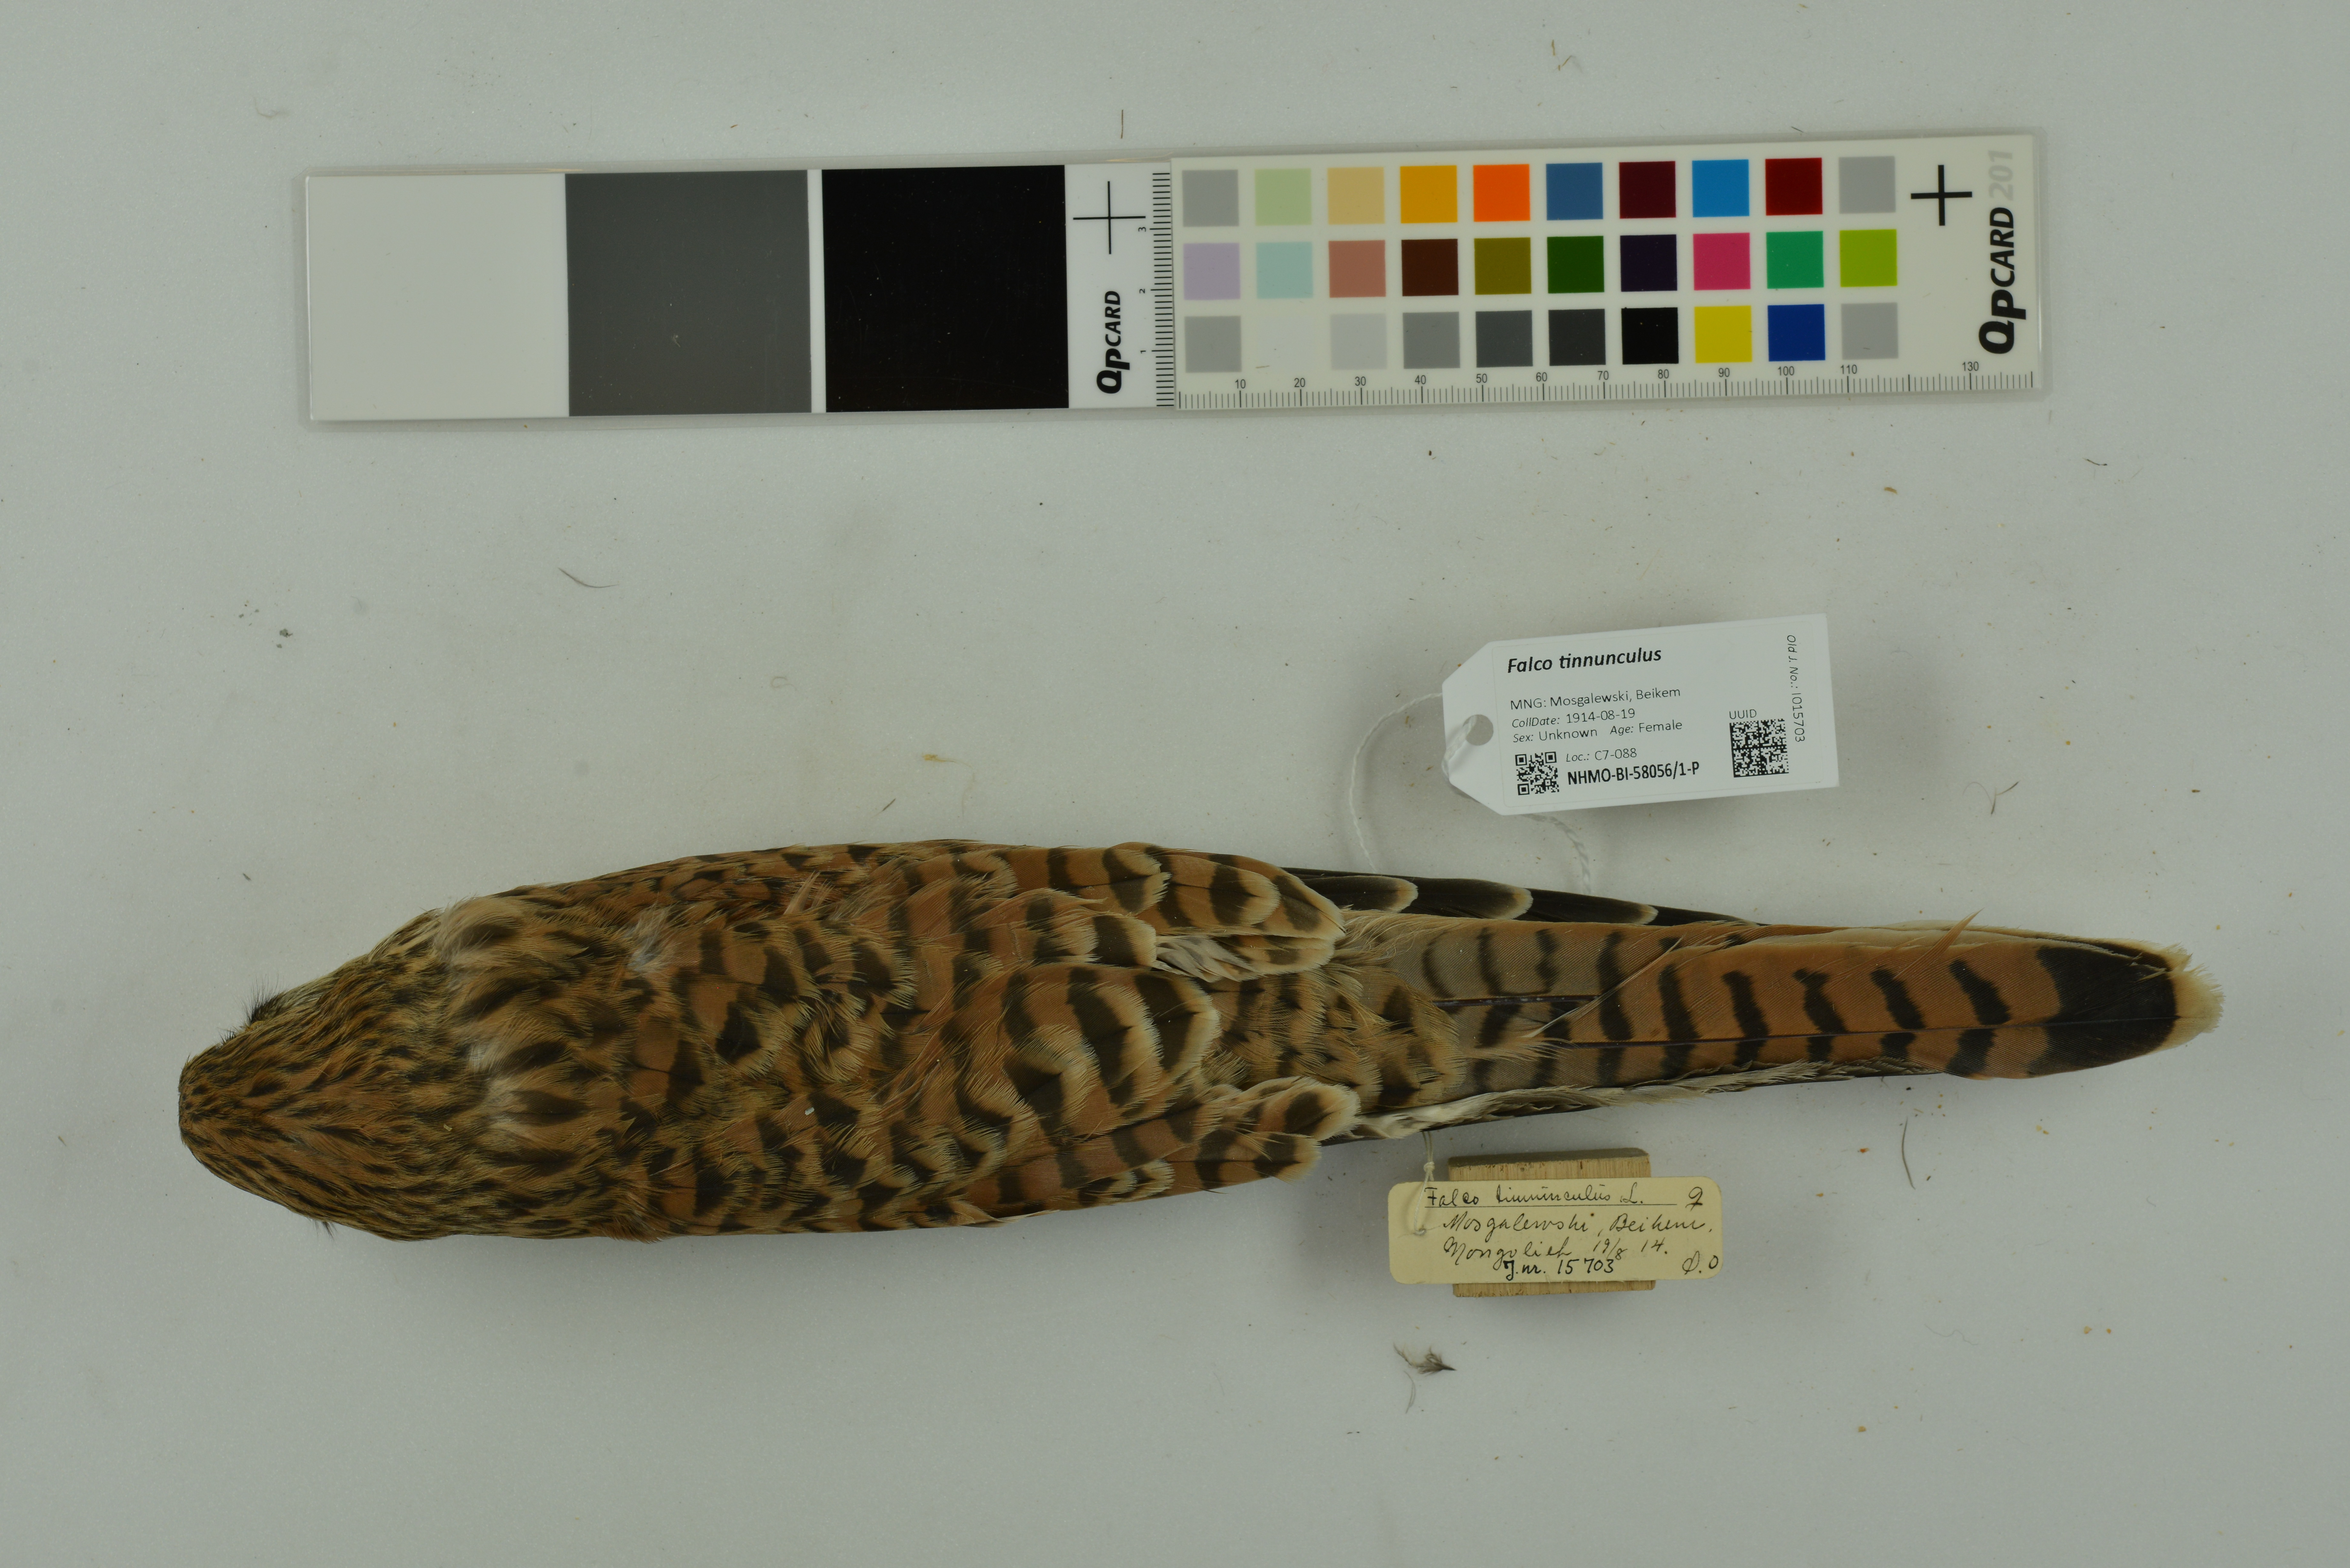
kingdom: Animalia
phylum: Chordata
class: Aves
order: Falconiformes
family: Falconidae
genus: Falco
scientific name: Falco tinnunculus
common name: Common kestrel
